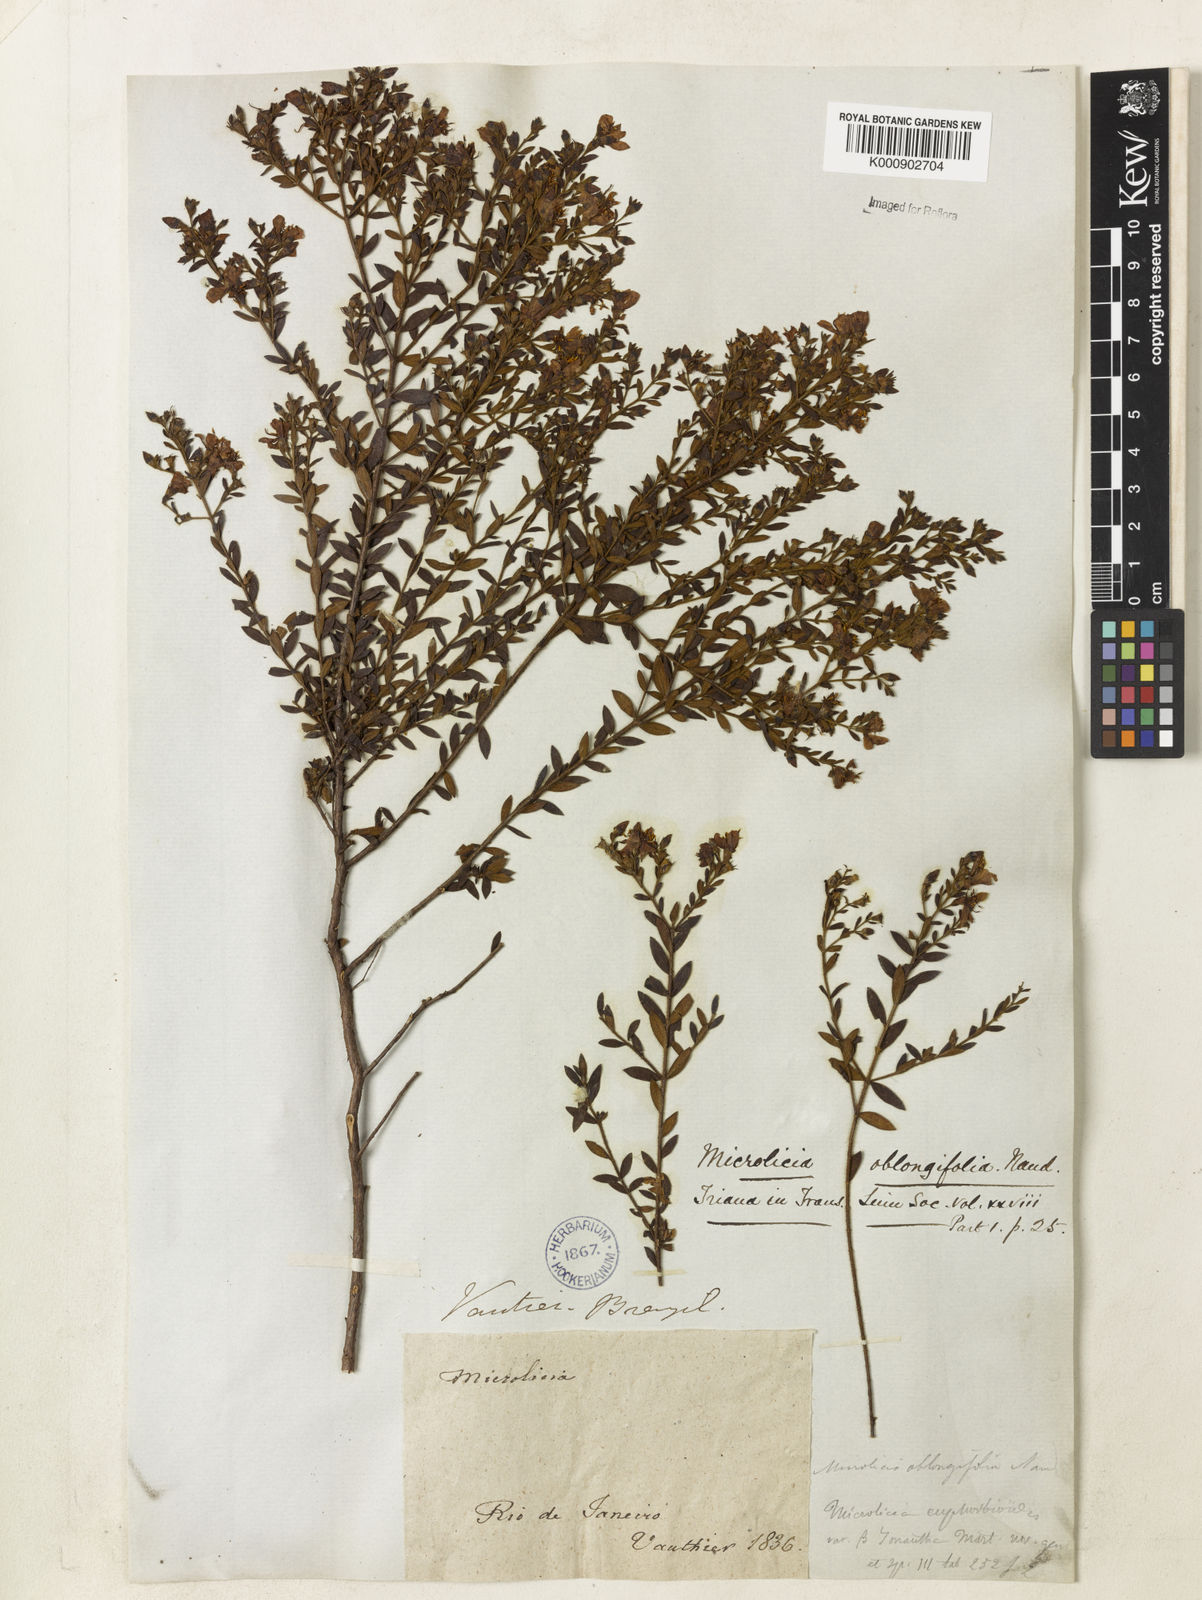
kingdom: Plantae
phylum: Tracheophyta
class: Magnoliopsida
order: Myrtales
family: Melastomataceae
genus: Microlicia
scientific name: Microlicia euphorbioides
